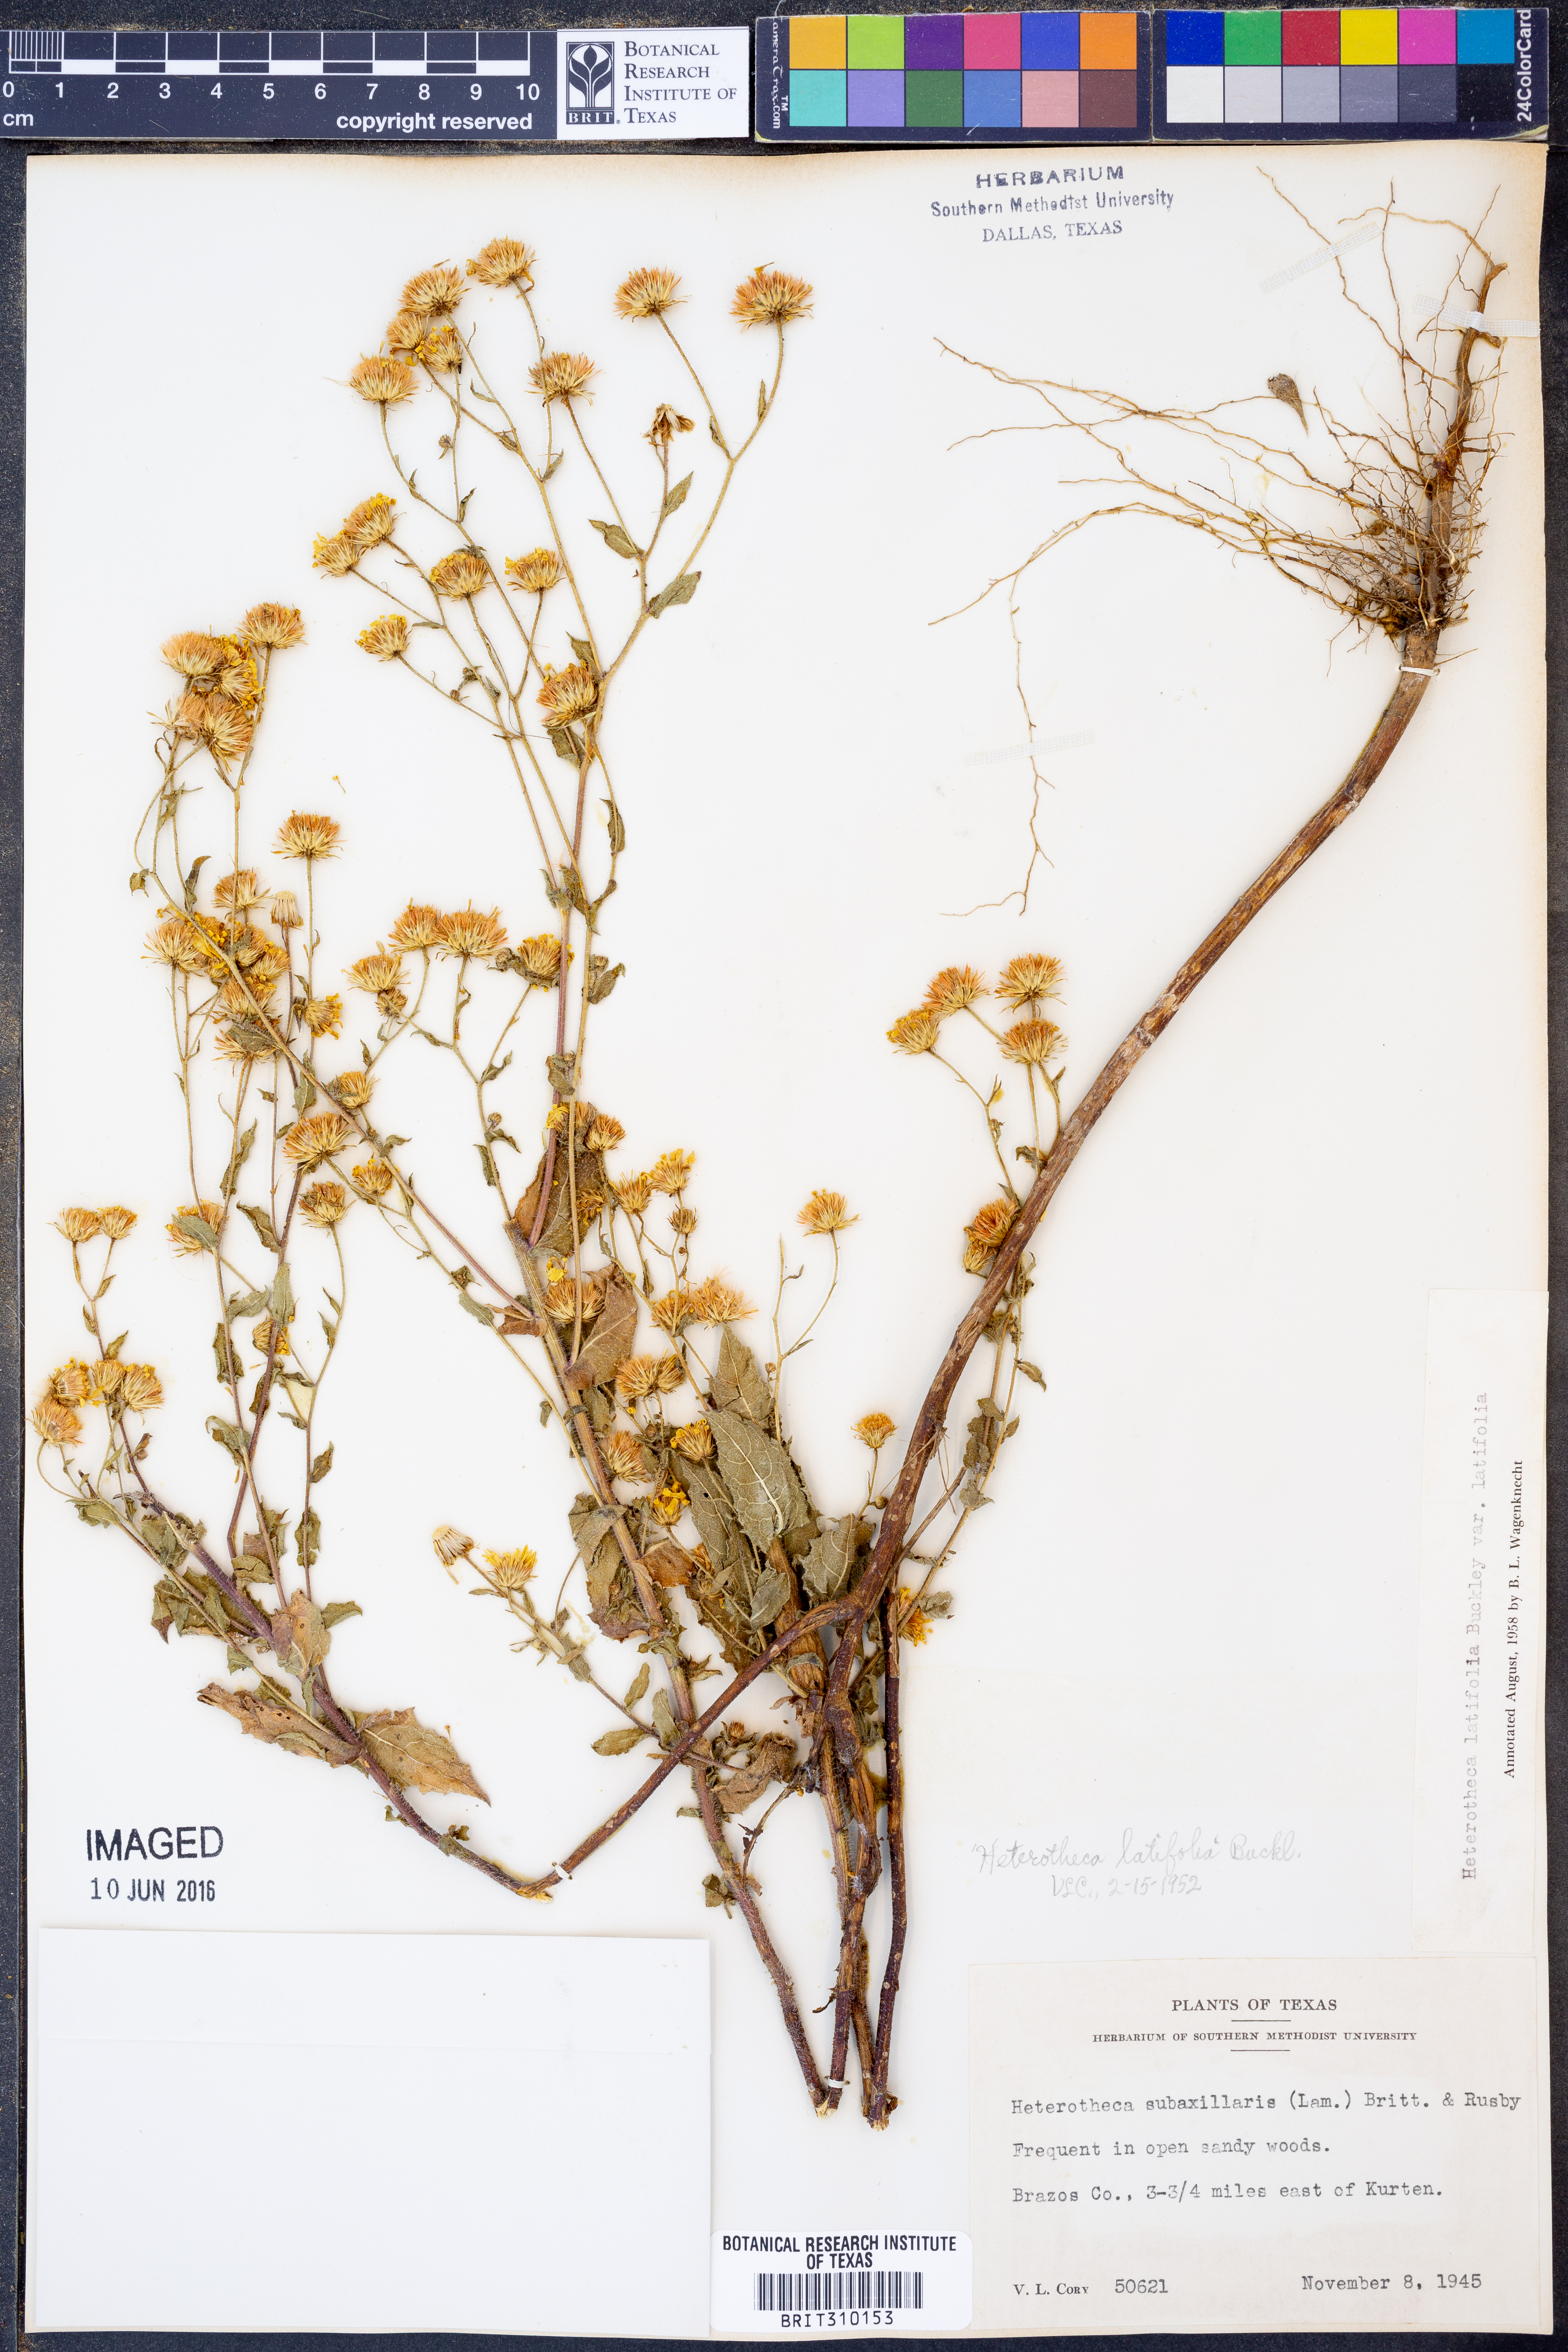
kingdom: Plantae
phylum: Tracheophyta
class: Magnoliopsida
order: Asterales
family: Asteraceae
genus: Heterotheca
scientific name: Heterotheca subaxillaris
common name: Camphorweed
